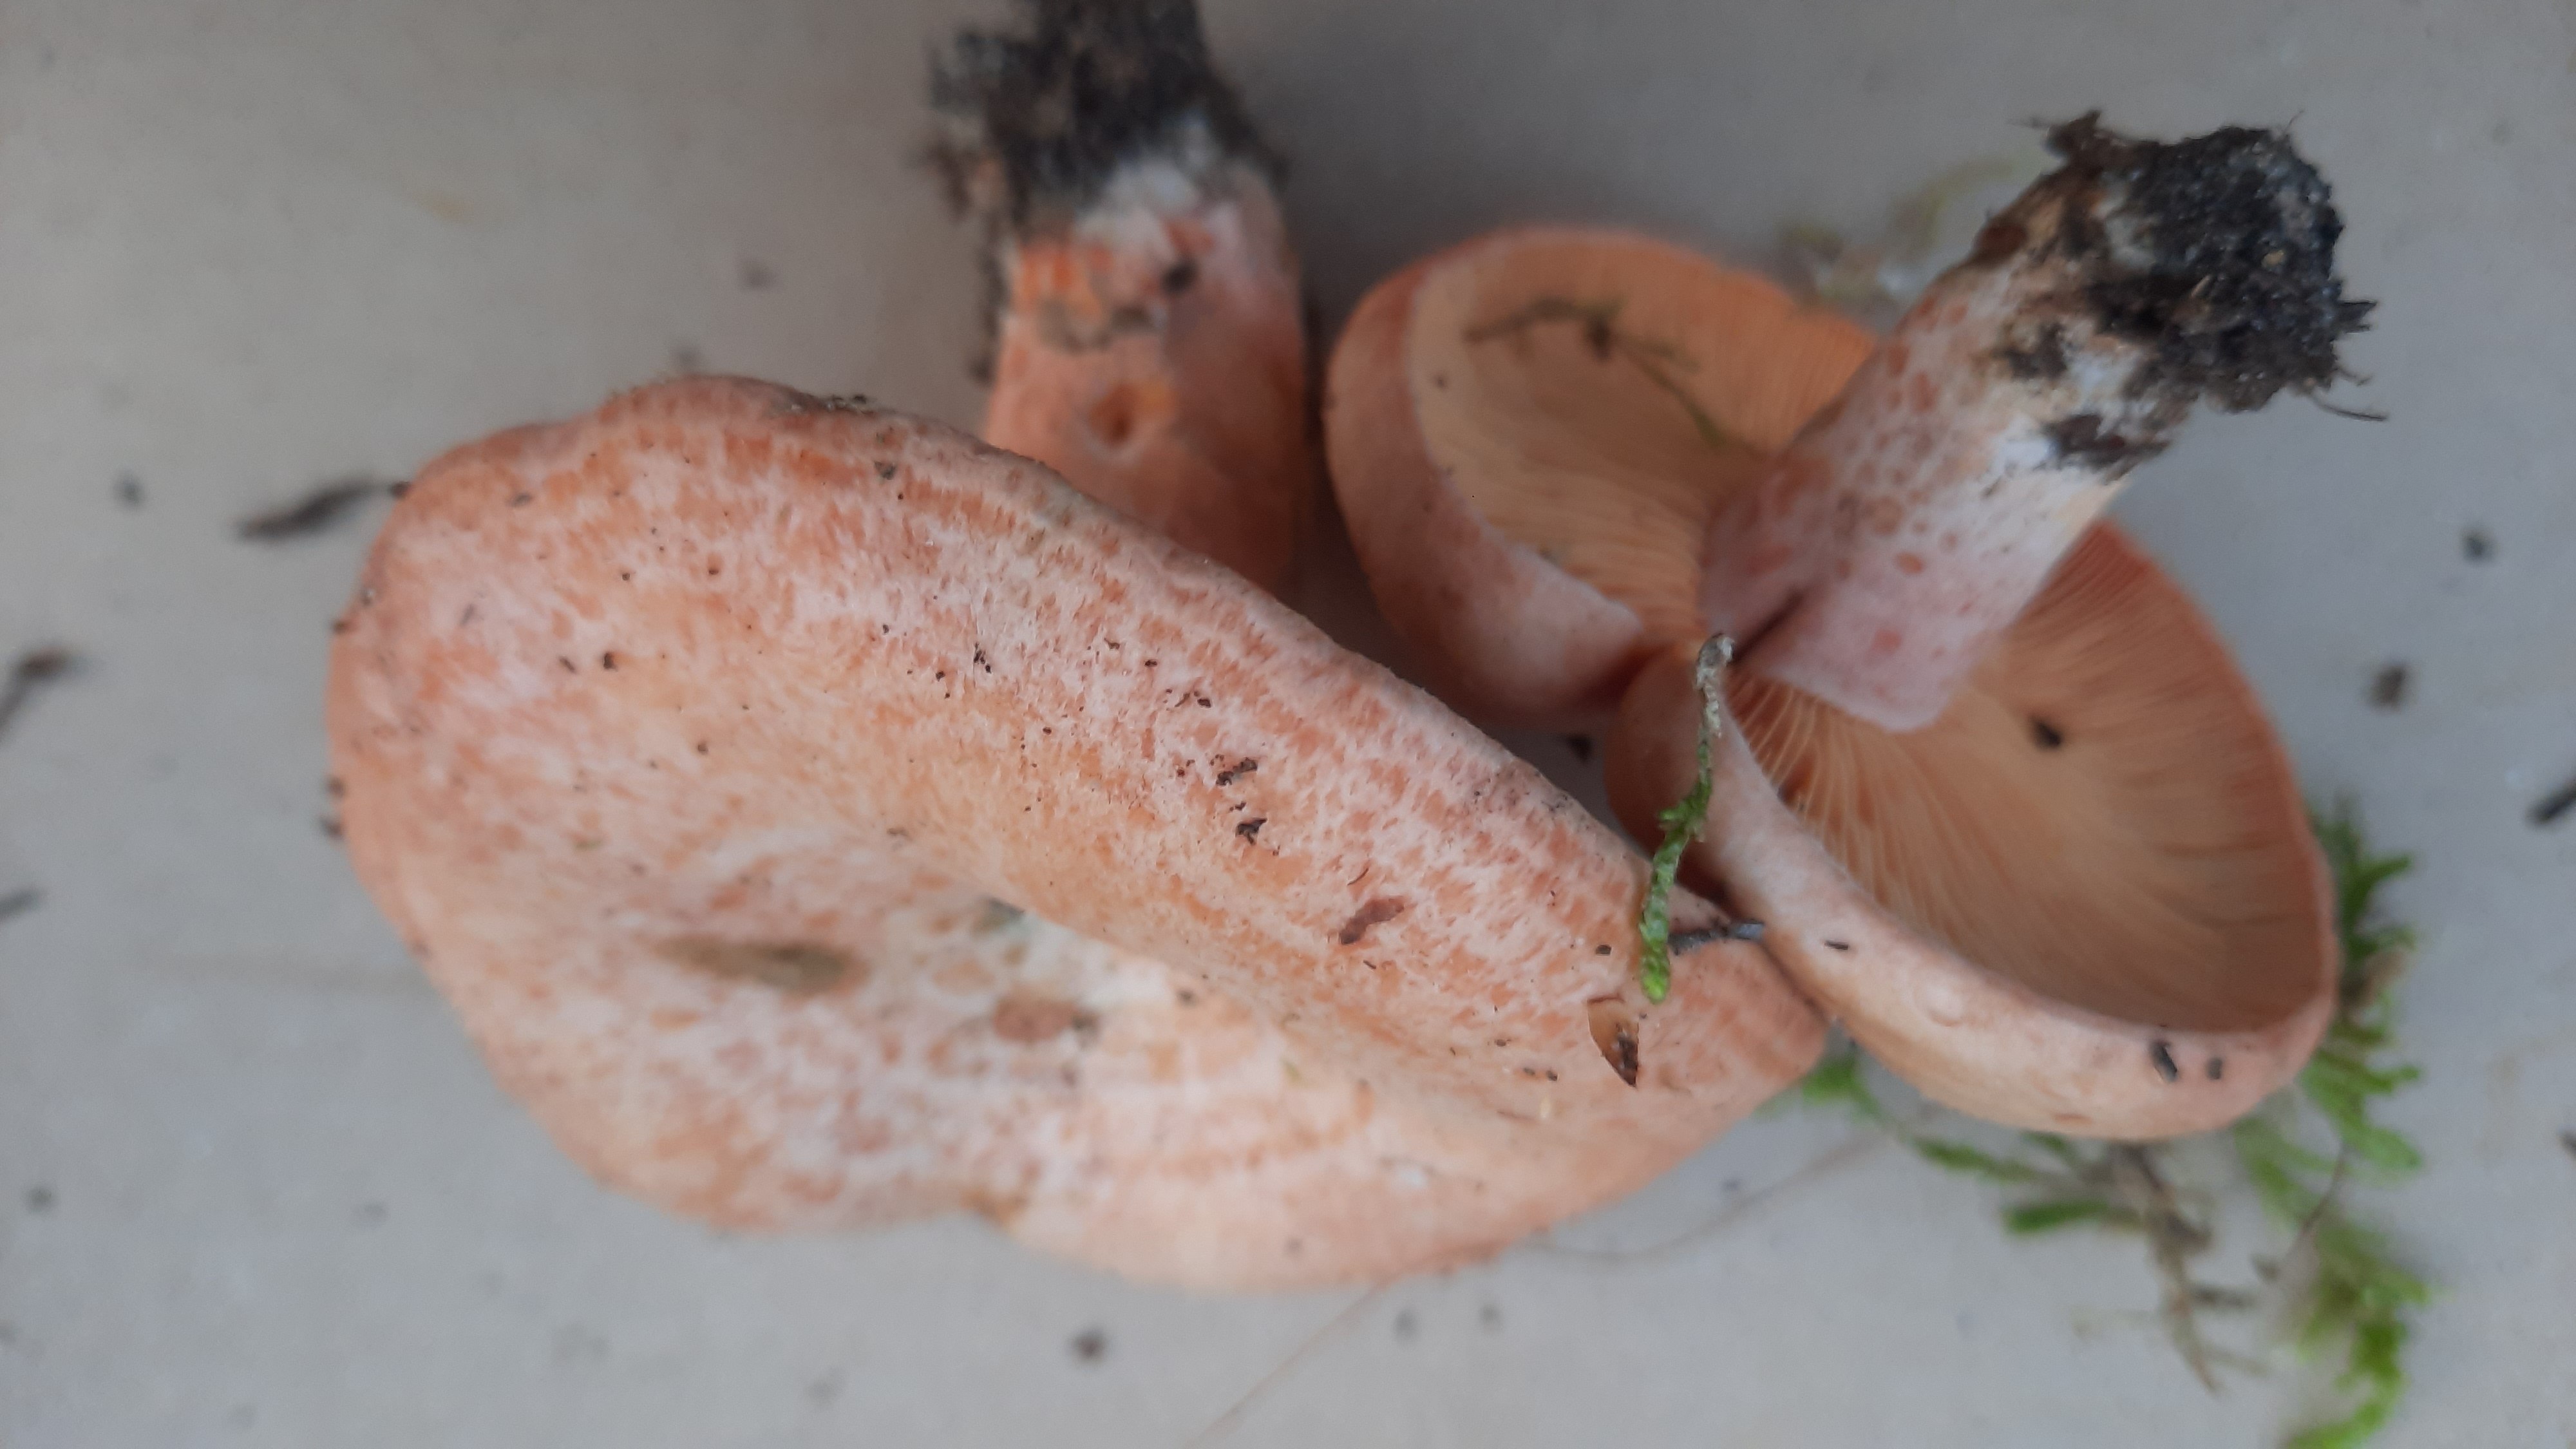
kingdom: Fungi
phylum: Basidiomycota
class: Agaricomycetes
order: Russulales
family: Russulaceae
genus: Lactarius
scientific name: Lactarius deliciosus
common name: velsmagende mælkehat
